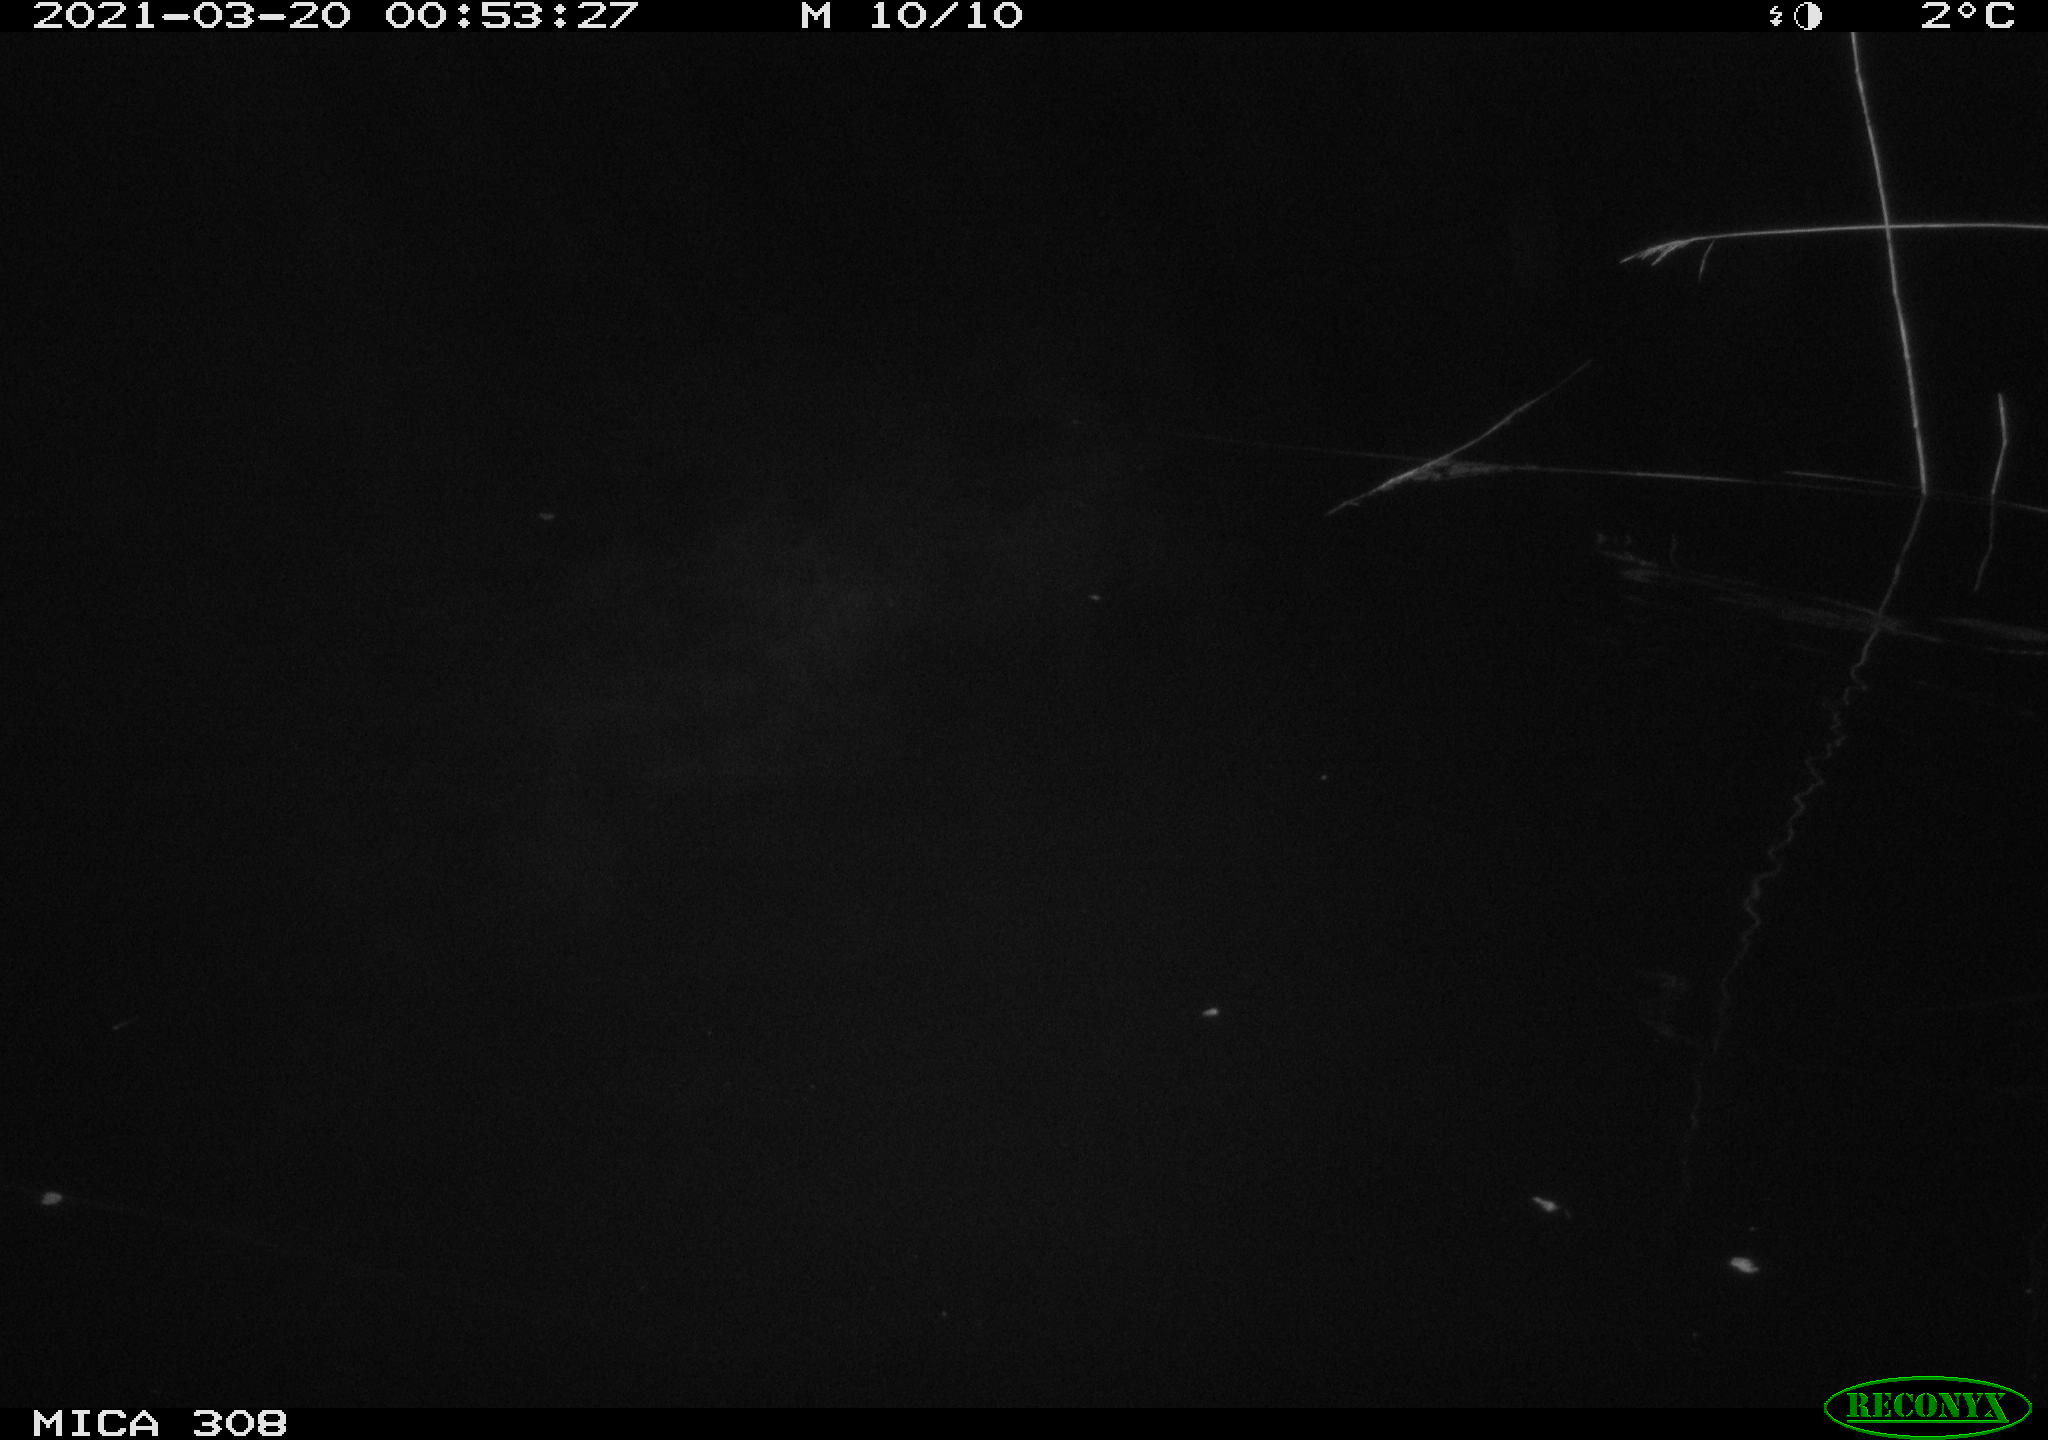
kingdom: Animalia
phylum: Chordata
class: Mammalia
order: Rodentia
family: Cricetidae
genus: Ondatra
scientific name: Ondatra zibethicus
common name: Muskrat
